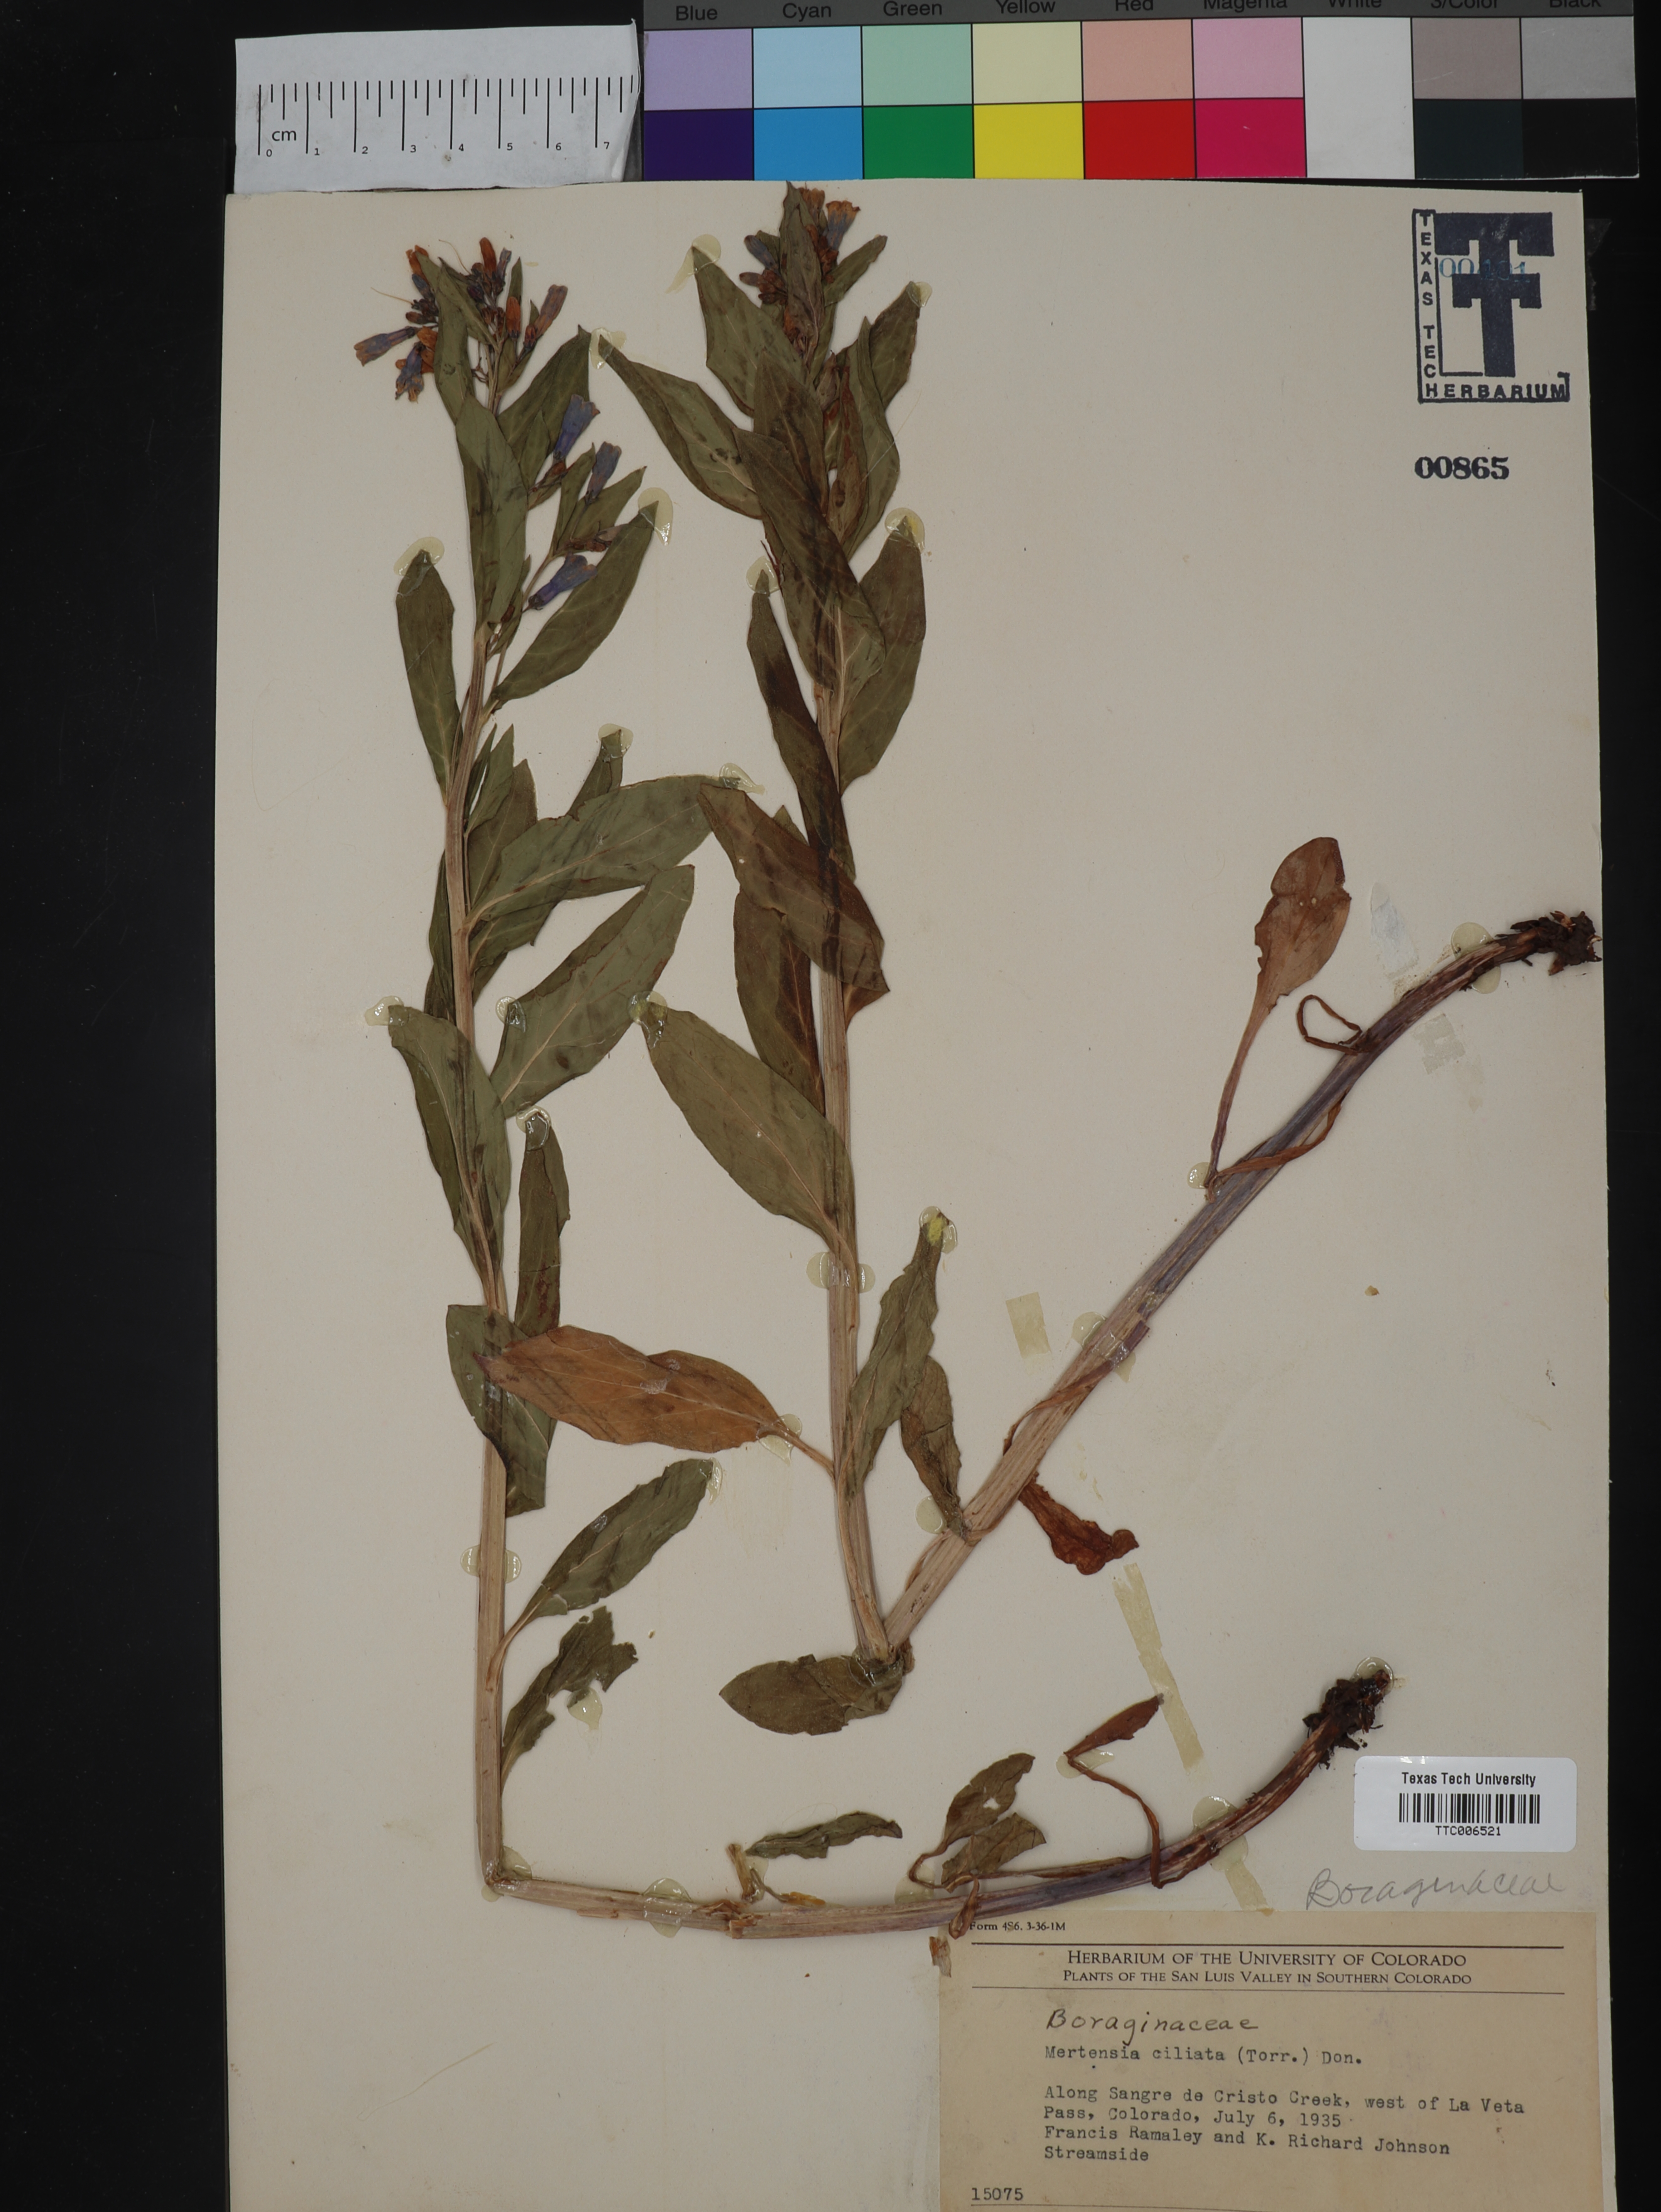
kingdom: Plantae
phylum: Tracheophyta
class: Magnoliopsida
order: Boraginales
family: Boraginaceae
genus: Mertensia
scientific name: Mertensia ciliata
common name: Tall chiming-bells
